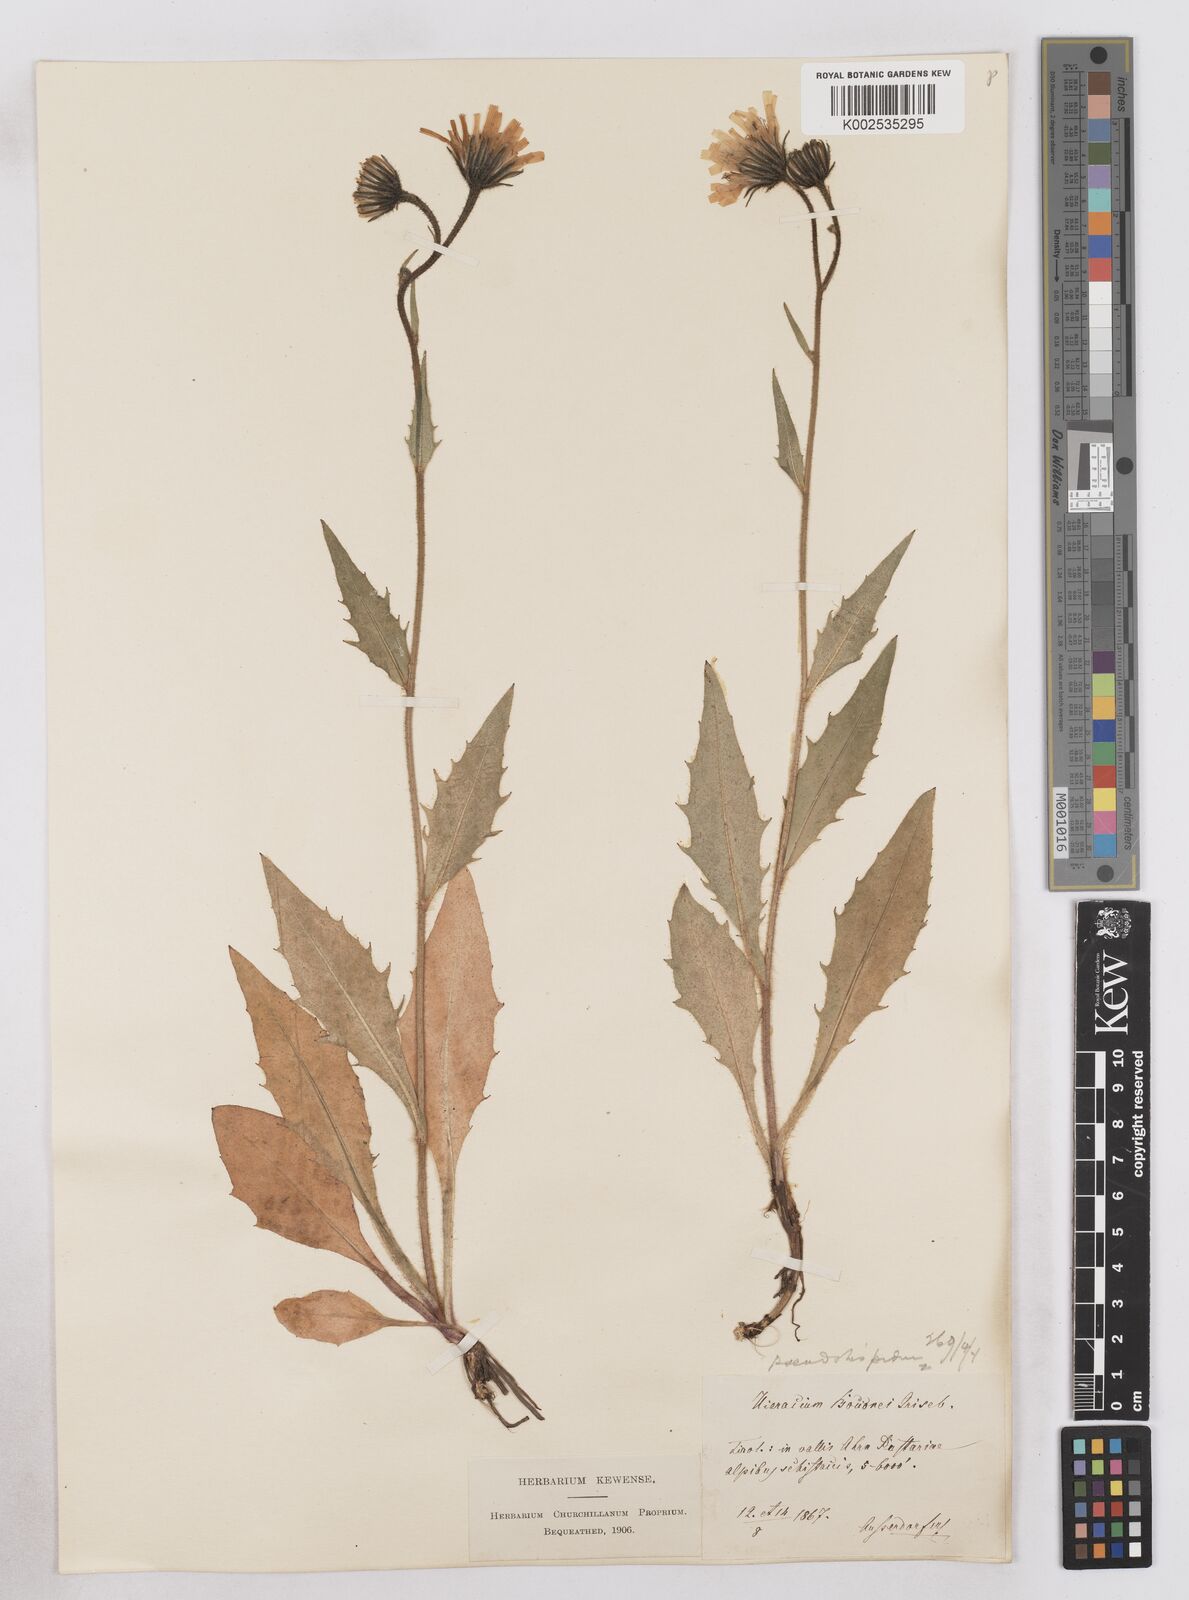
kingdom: Plantae
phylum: Tracheophyta
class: Magnoliopsida
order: Asterales
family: Asteraceae
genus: Hieracium
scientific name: Hieracium bocconei
